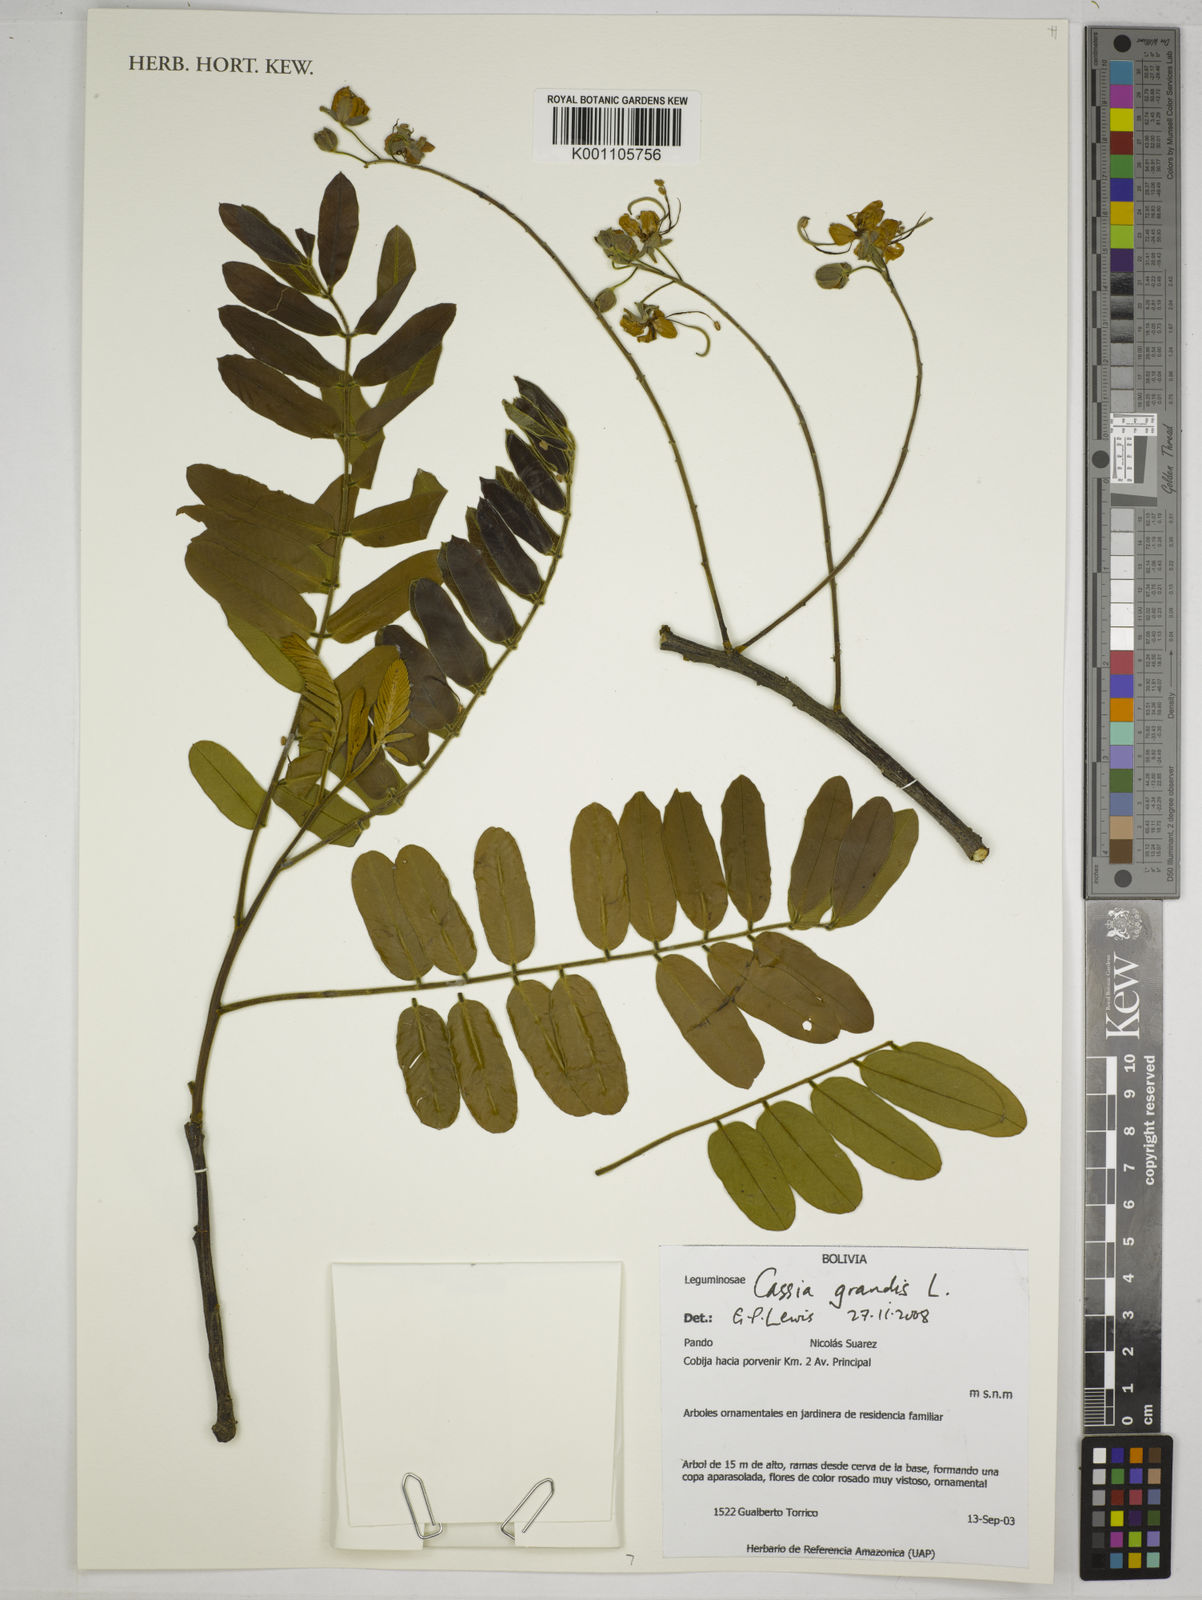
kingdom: Plantae
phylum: Tracheophyta
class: Magnoliopsida
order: Fabales
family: Fabaceae
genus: Cassia
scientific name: Cassia grandis
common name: Appleblossom cassia
